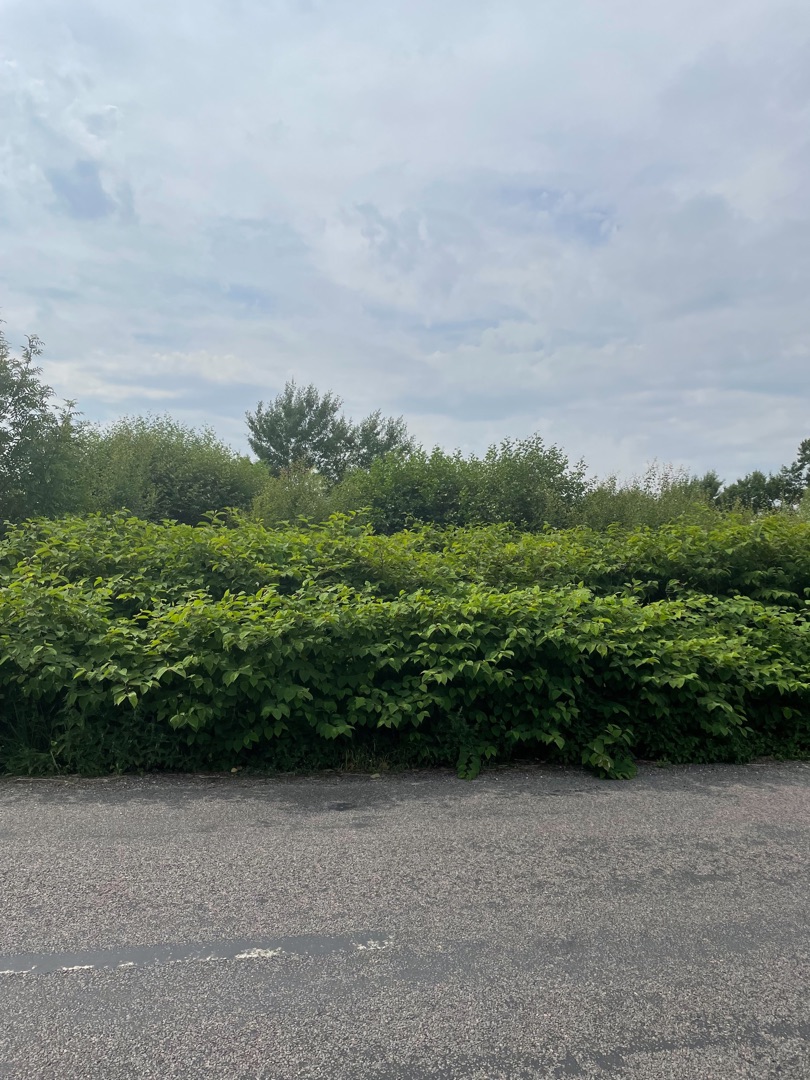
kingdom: Plantae
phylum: Tracheophyta
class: Magnoliopsida
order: Caryophyllales
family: Polygonaceae
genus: Reynoutria
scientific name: Reynoutria japonica
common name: Japan-pileurt
